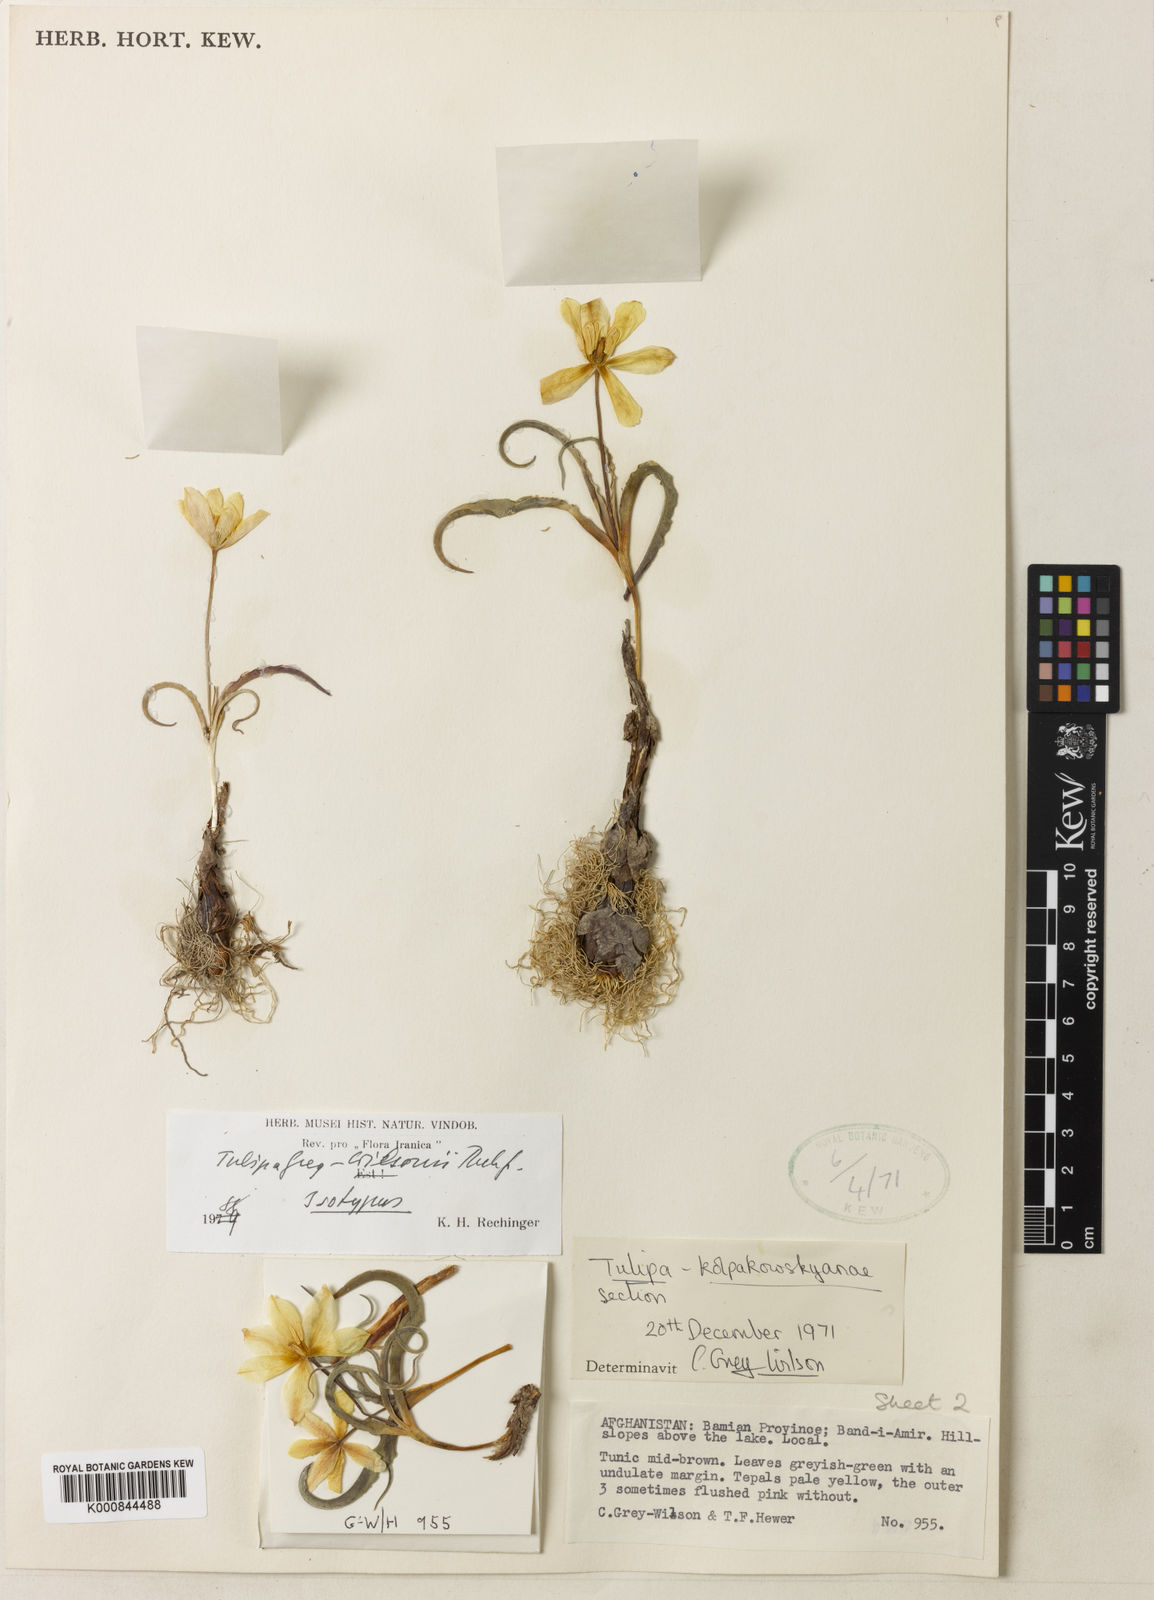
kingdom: Plantae
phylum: Tracheophyta
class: Liliopsida
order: Liliales
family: Liliaceae
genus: Tulipa
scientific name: Tulipa greigii
